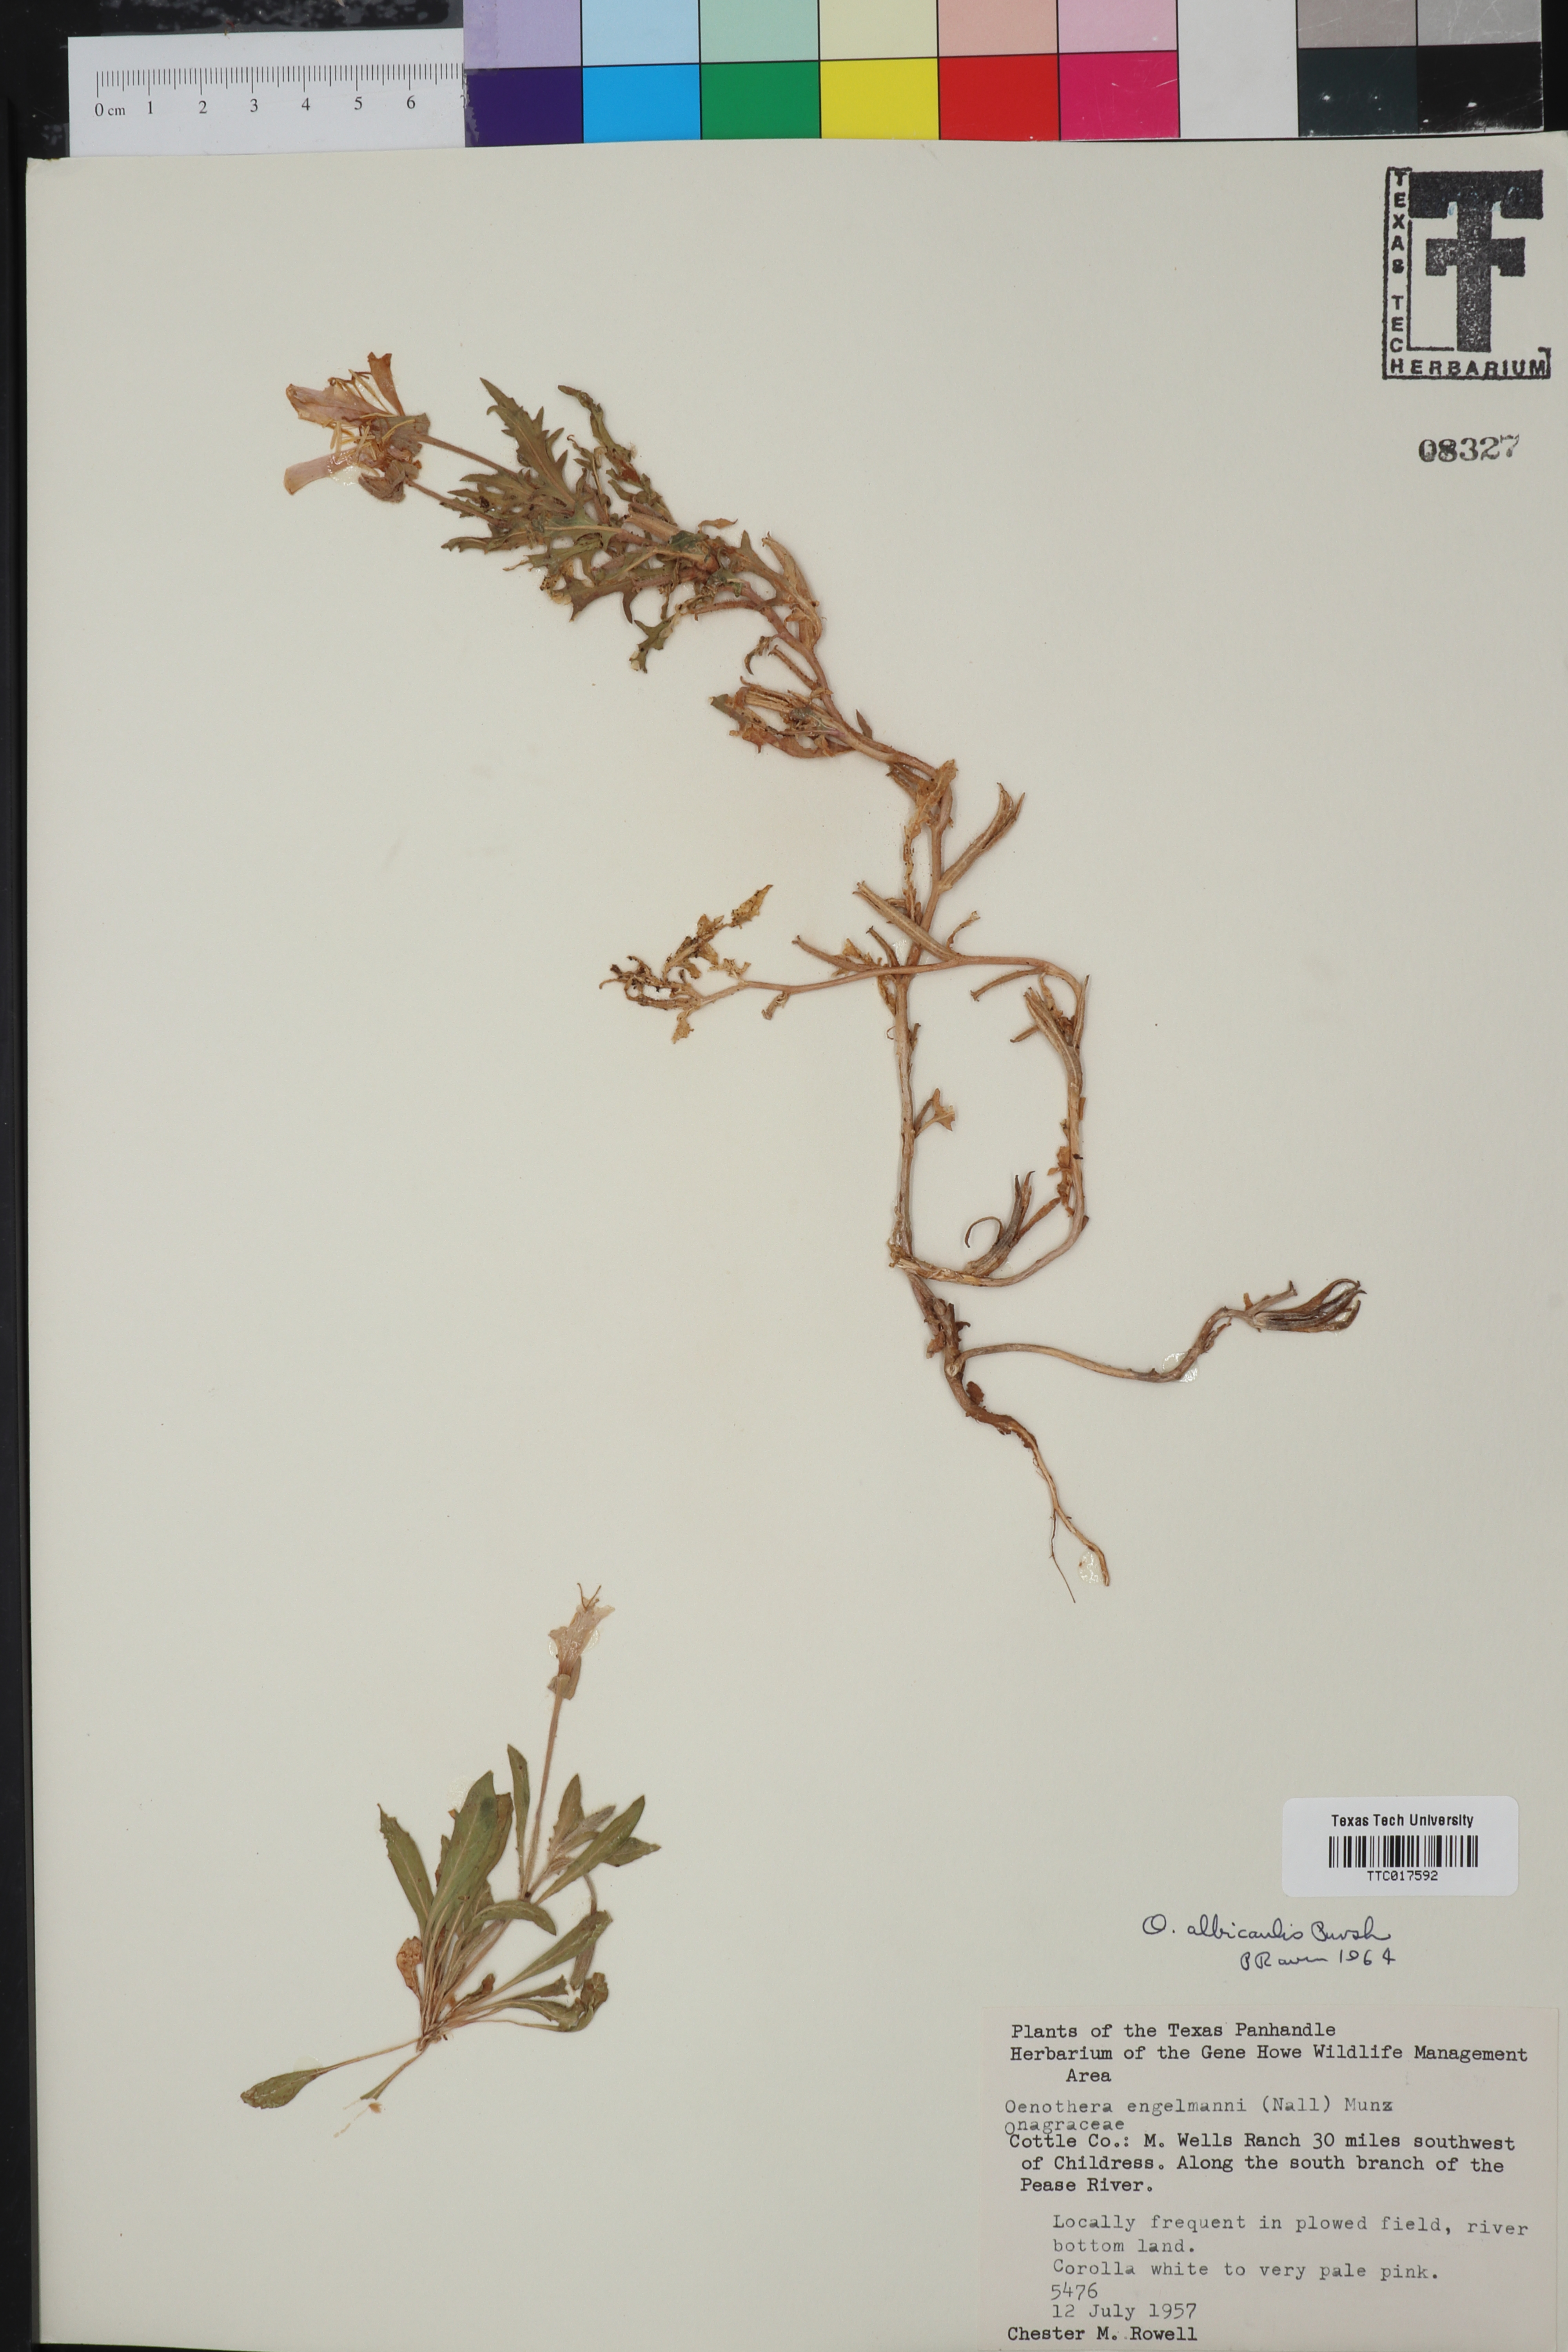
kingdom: Plantae
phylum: Tracheophyta
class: Magnoliopsida
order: Myrtales
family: Onagraceae
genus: Oenothera
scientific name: Oenothera albicaulis
